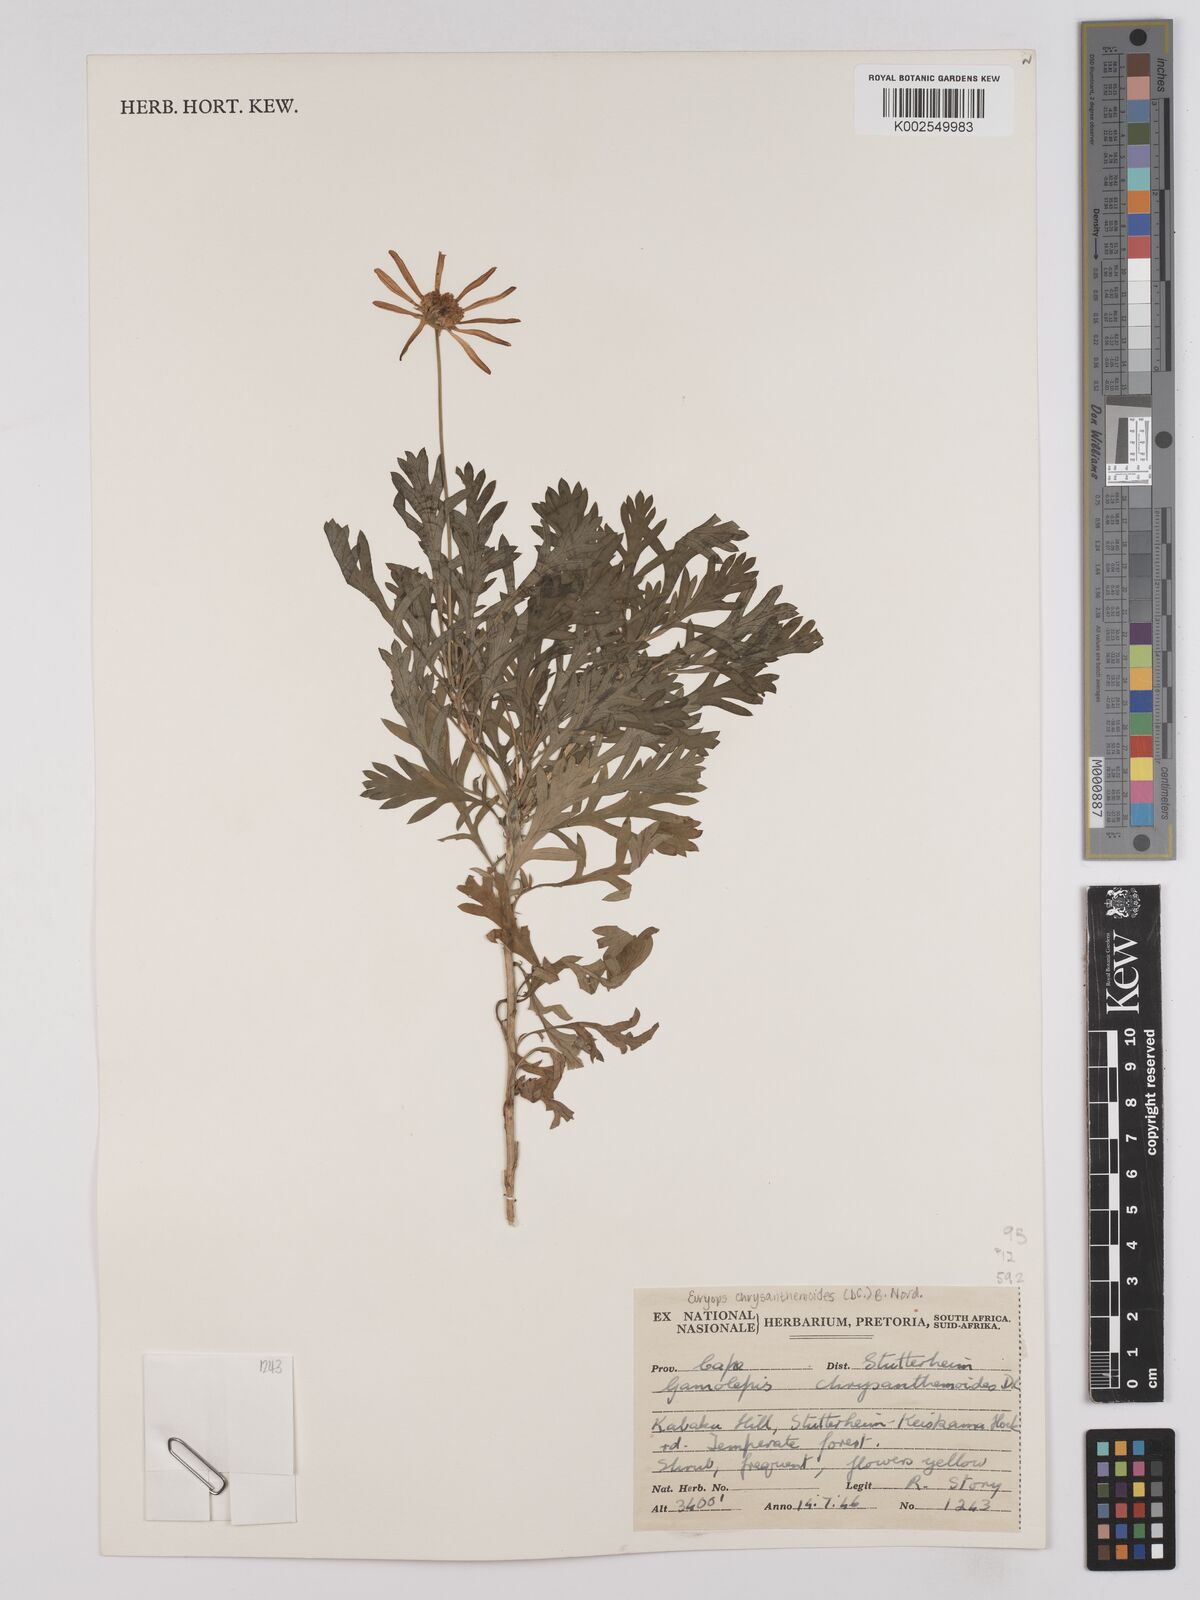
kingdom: Plantae
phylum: Tracheophyta
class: Magnoliopsida
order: Asterales
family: Asteraceae
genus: Euryops
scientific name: Euryops chrysanthemoides
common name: Bull's eye
